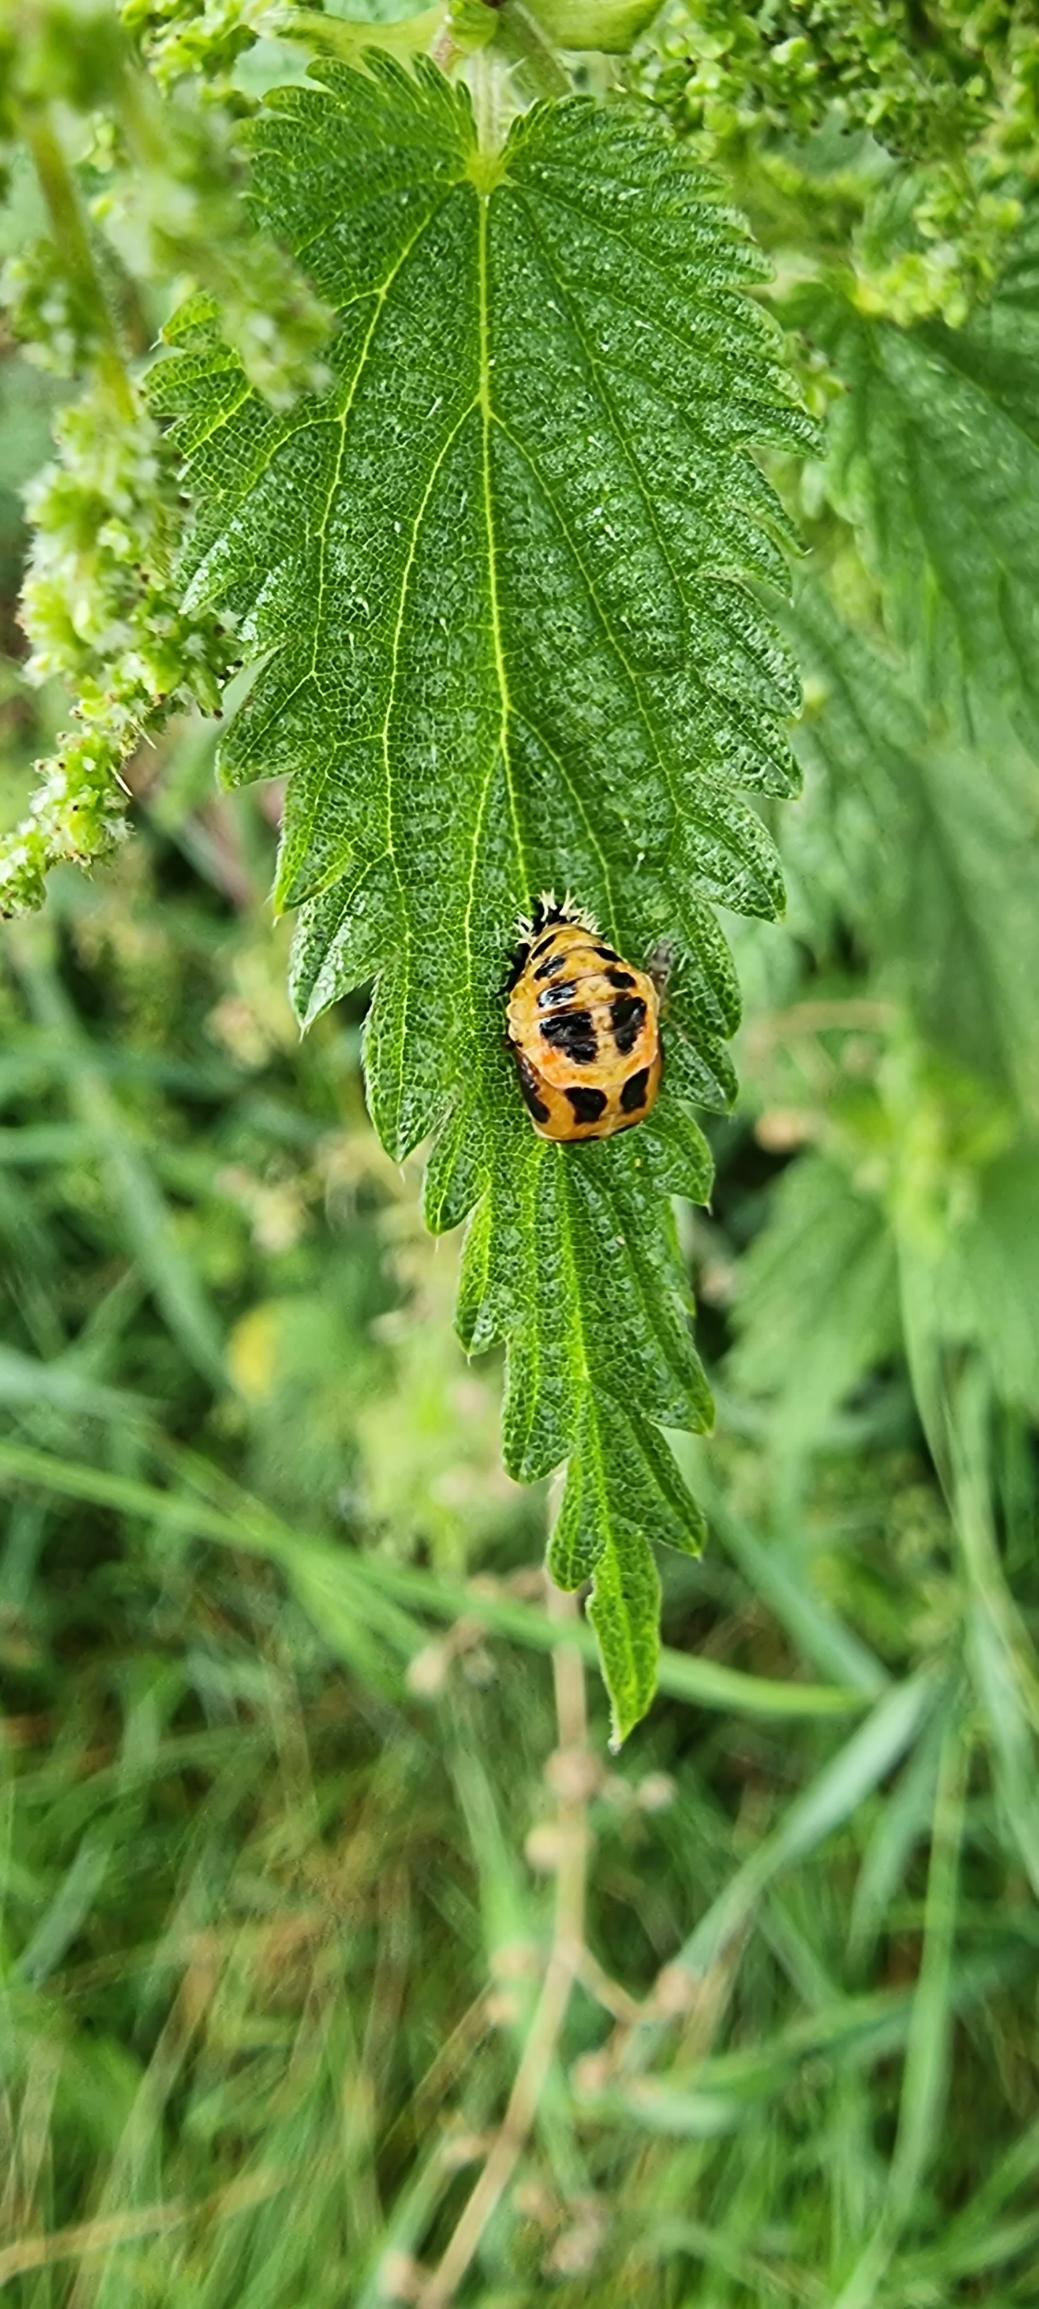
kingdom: Animalia
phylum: Arthropoda
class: Insecta
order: Coleoptera
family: Coccinellidae
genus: Harmonia
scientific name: Harmonia axyridis
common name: Harlekinmariehøne
